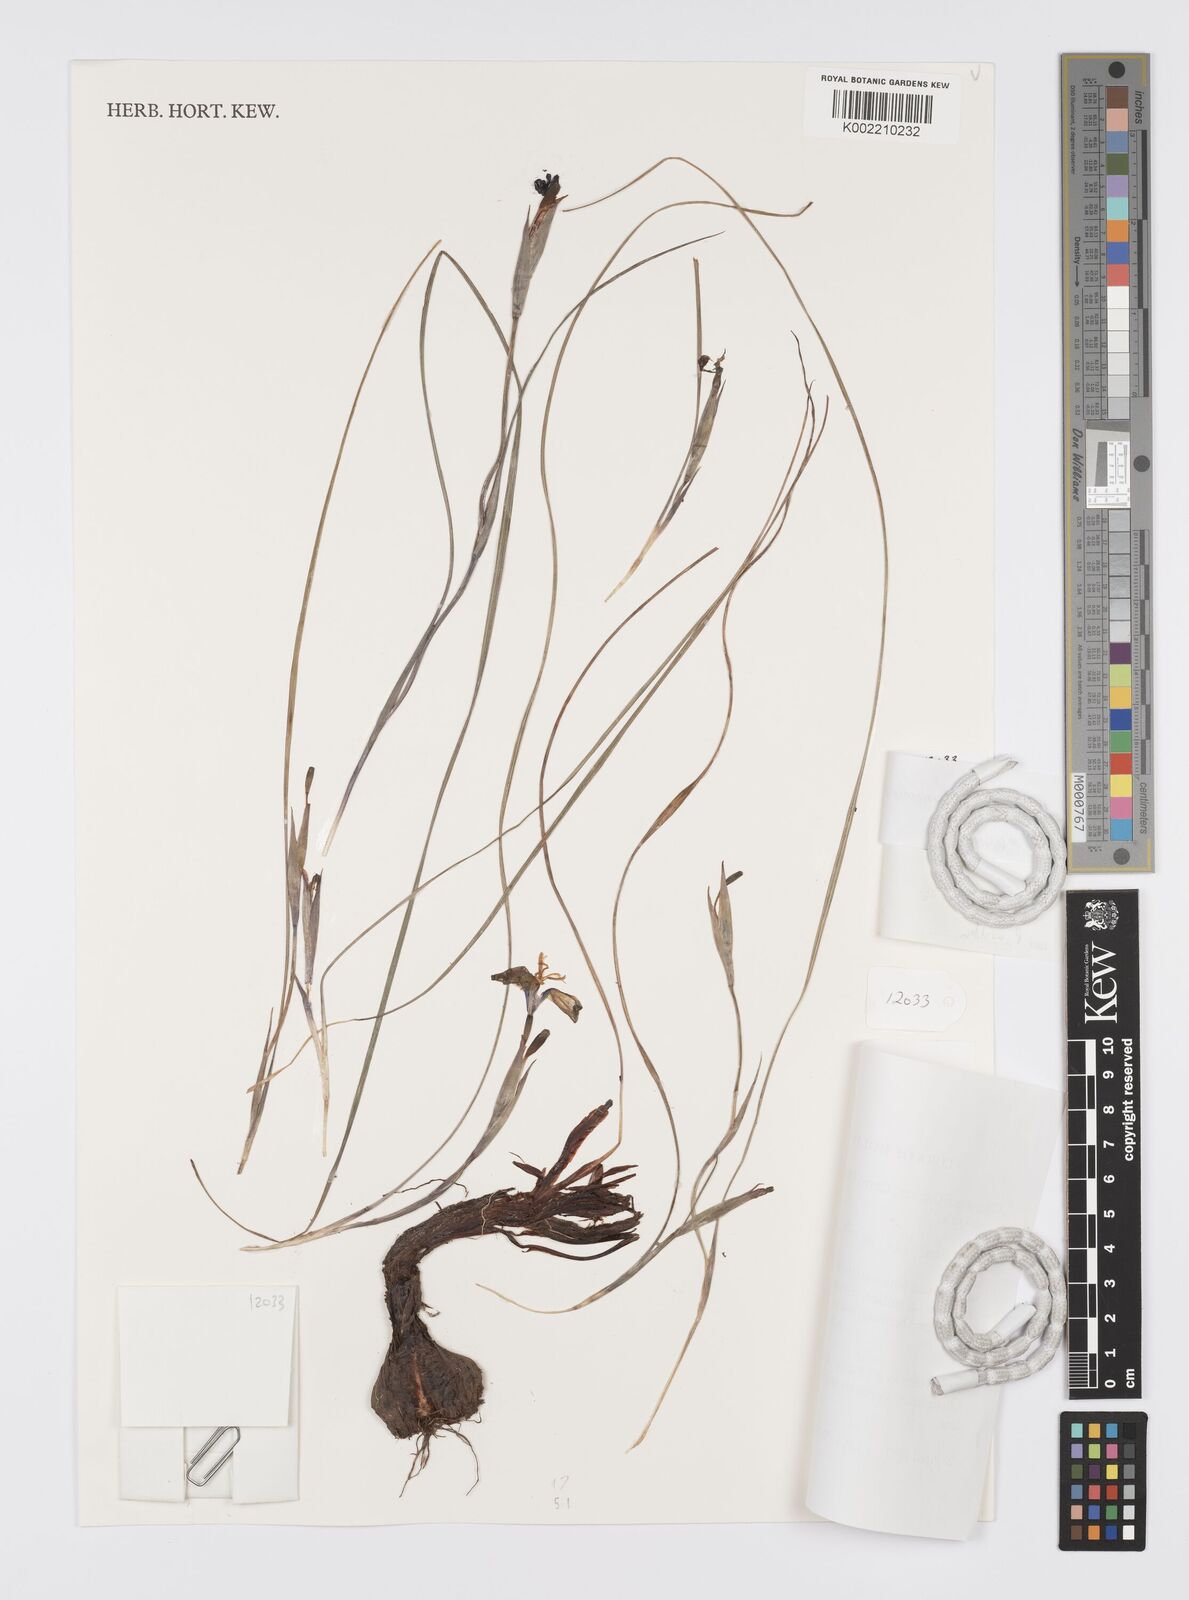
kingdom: Plantae
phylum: Tracheophyta
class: Liliopsida
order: Asparagales
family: Iridaceae
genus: Mastigostyla
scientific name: Mastigostyla chuquisacensis
